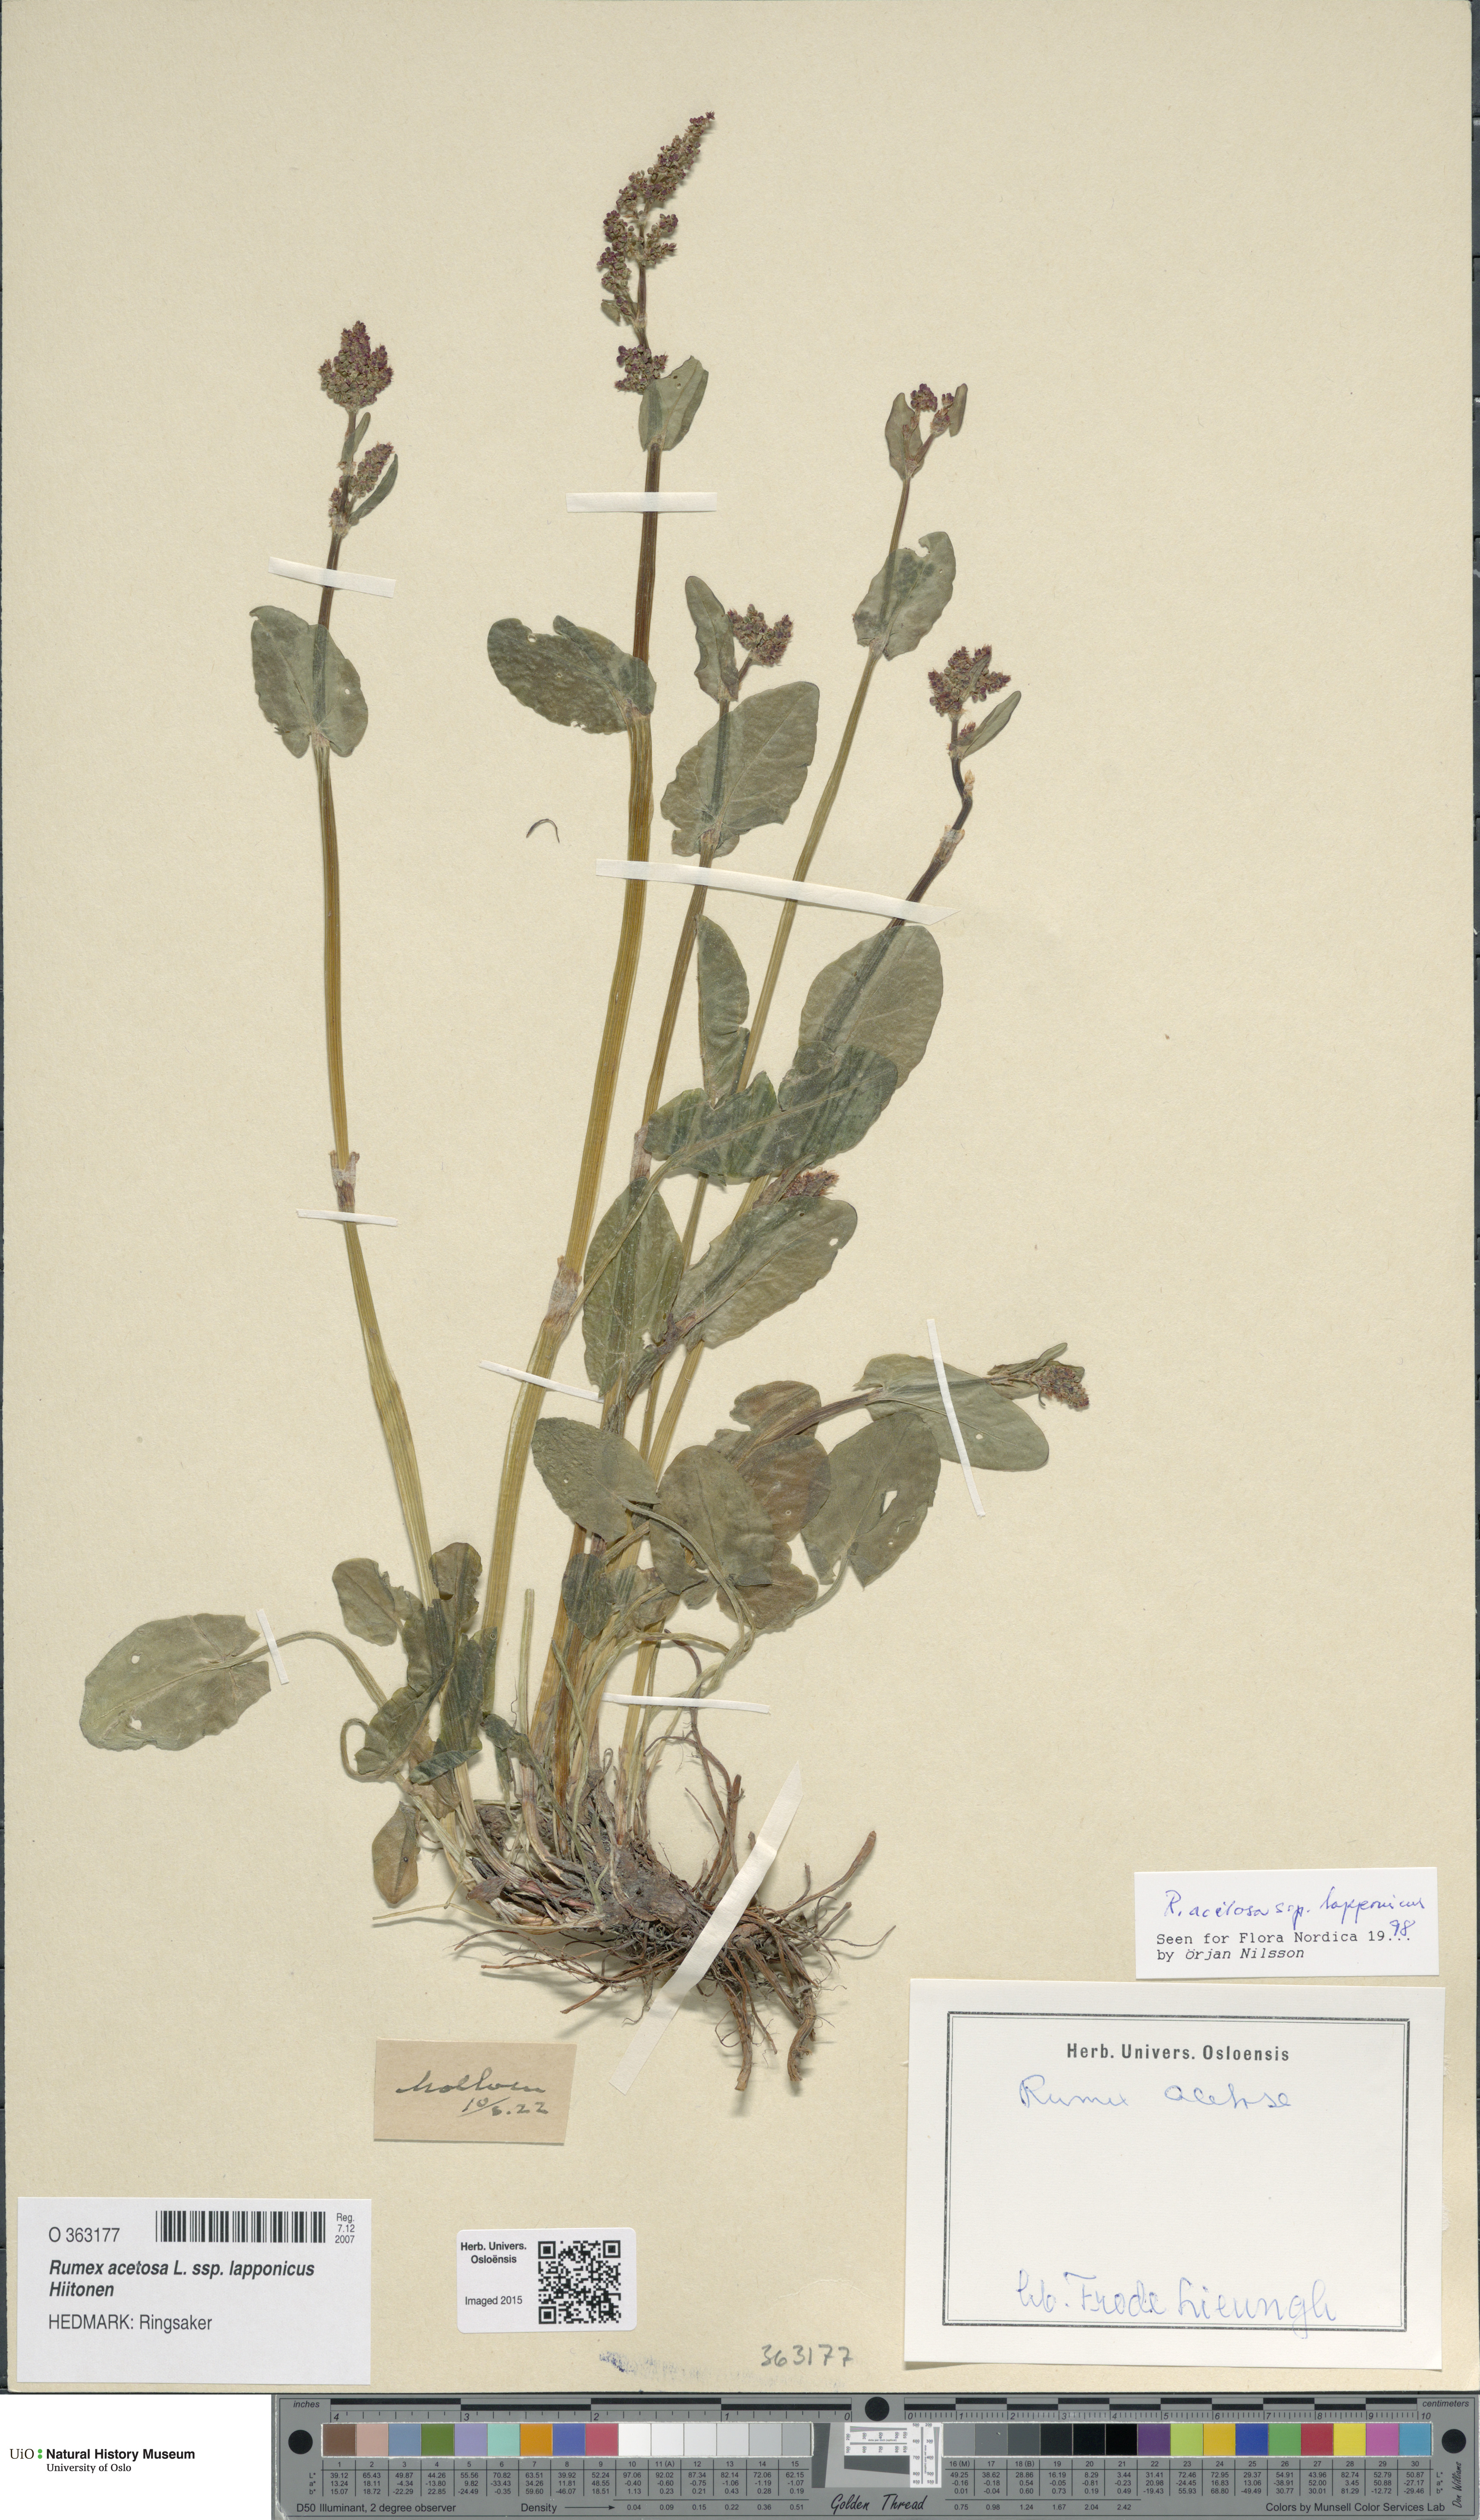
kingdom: Plantae
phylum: Tracheophyta
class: Magnoliopsida
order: Caryophyllales
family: Polygonaceae
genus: Rumex
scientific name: Rumex lapponicus
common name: Lapland mountain sorrel
